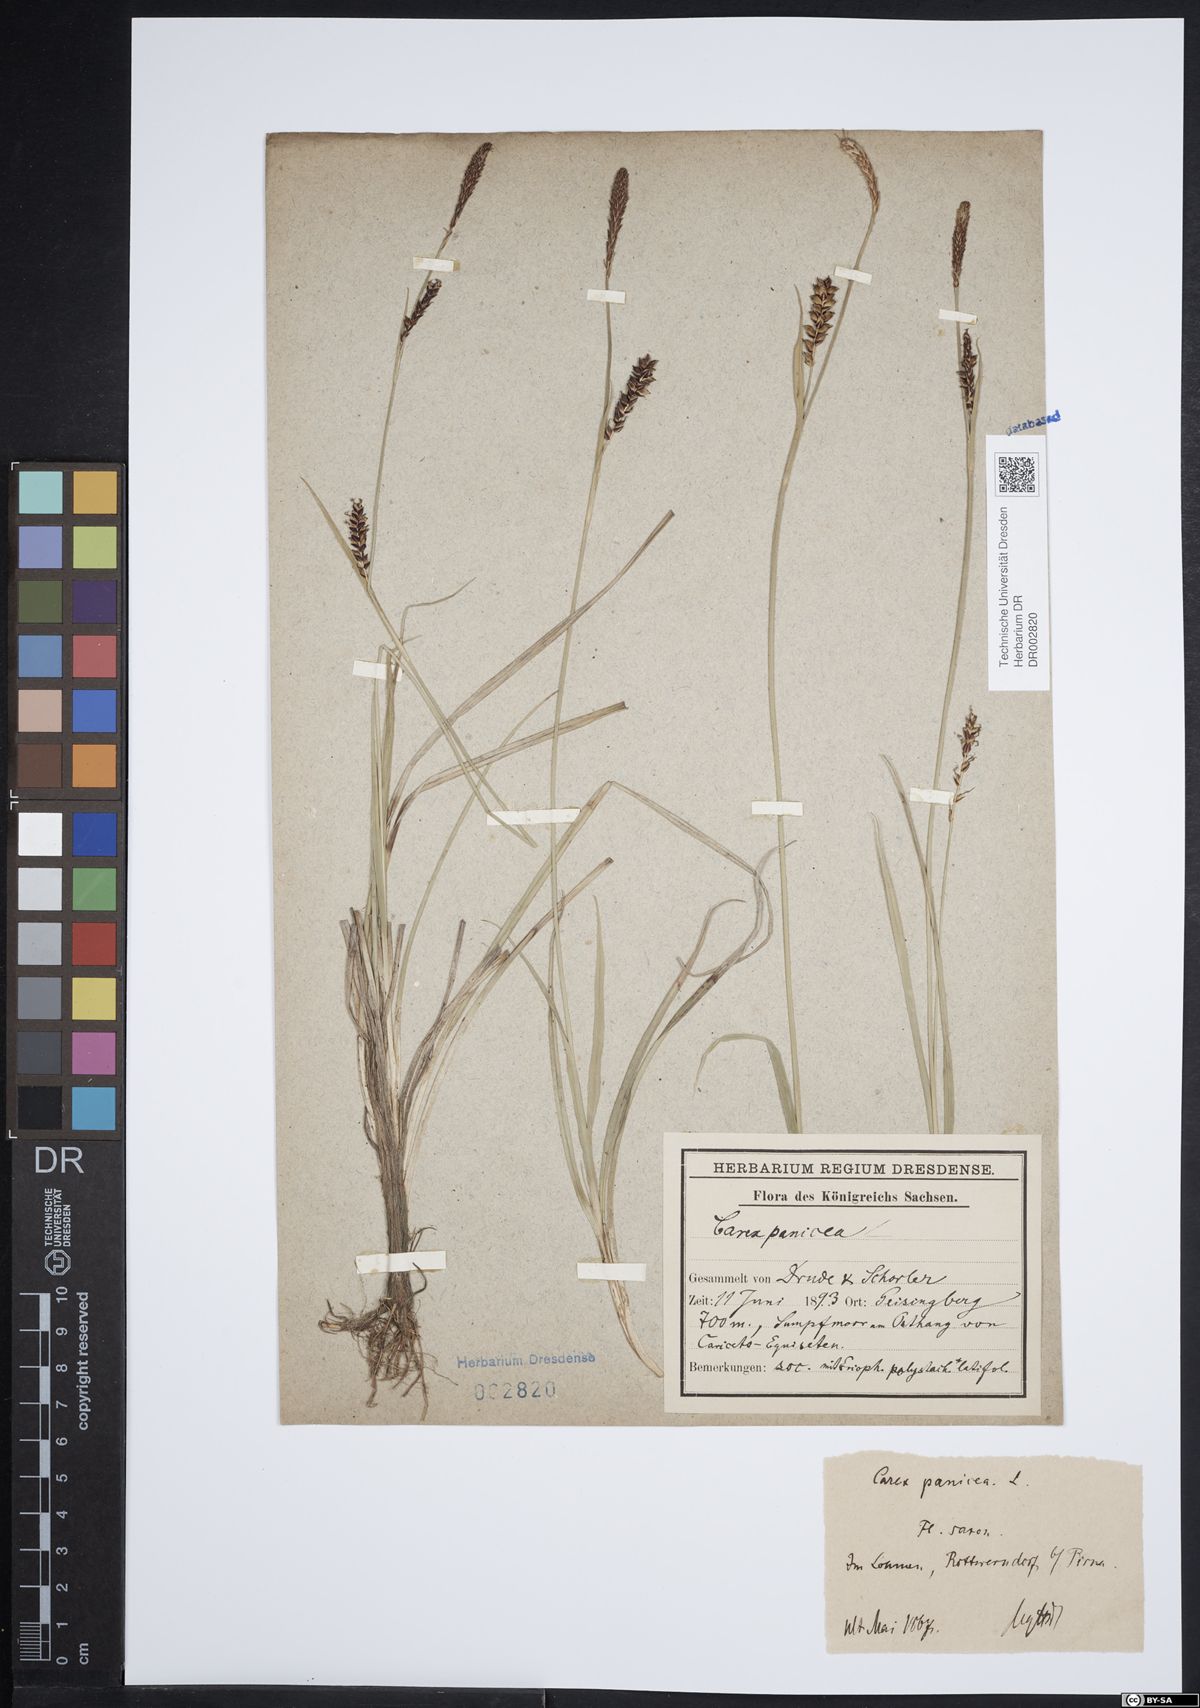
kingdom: Plantae
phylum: Tracheophyta
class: Liliopsida
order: Poales
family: Cyperaceae
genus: Carex
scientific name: Carex panicea
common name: Carnation sedge
